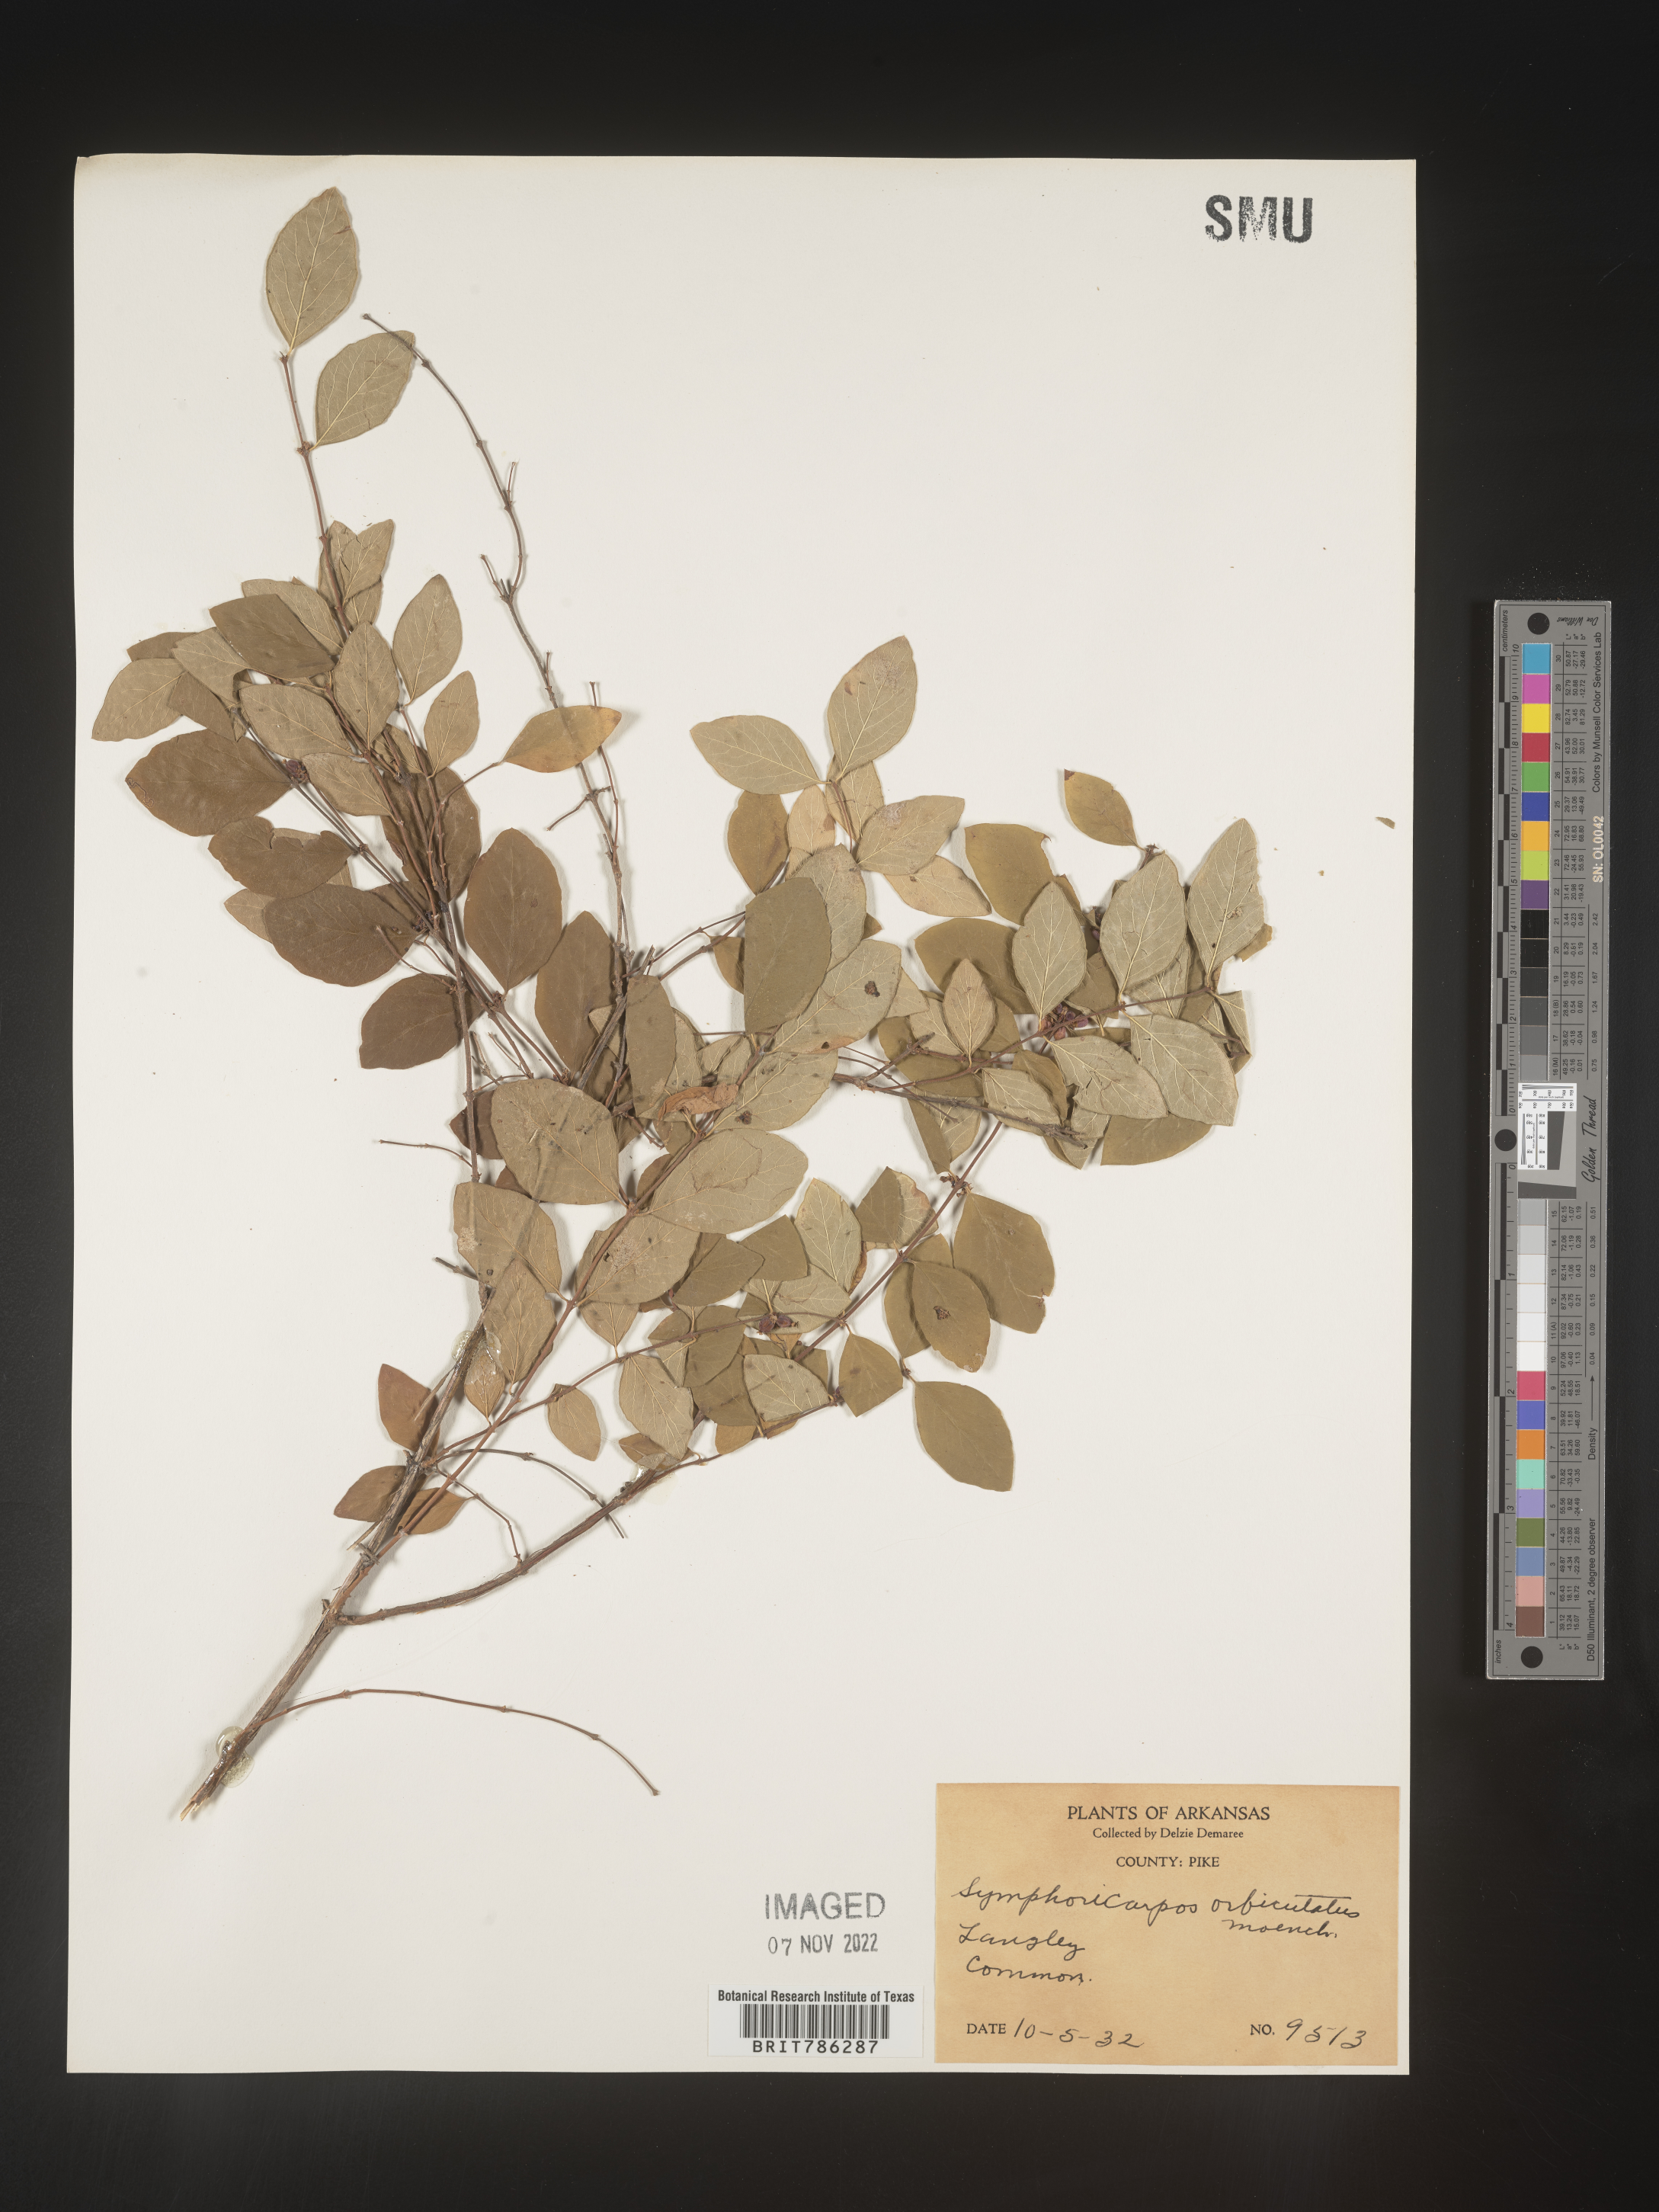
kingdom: Plantae
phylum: Tracheophyta
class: Magnoliopsida
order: Dipsacales
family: Caprifoliaceae
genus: Symphoricarpos
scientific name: Symphoricarpos orbiculatus
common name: Coralberry
